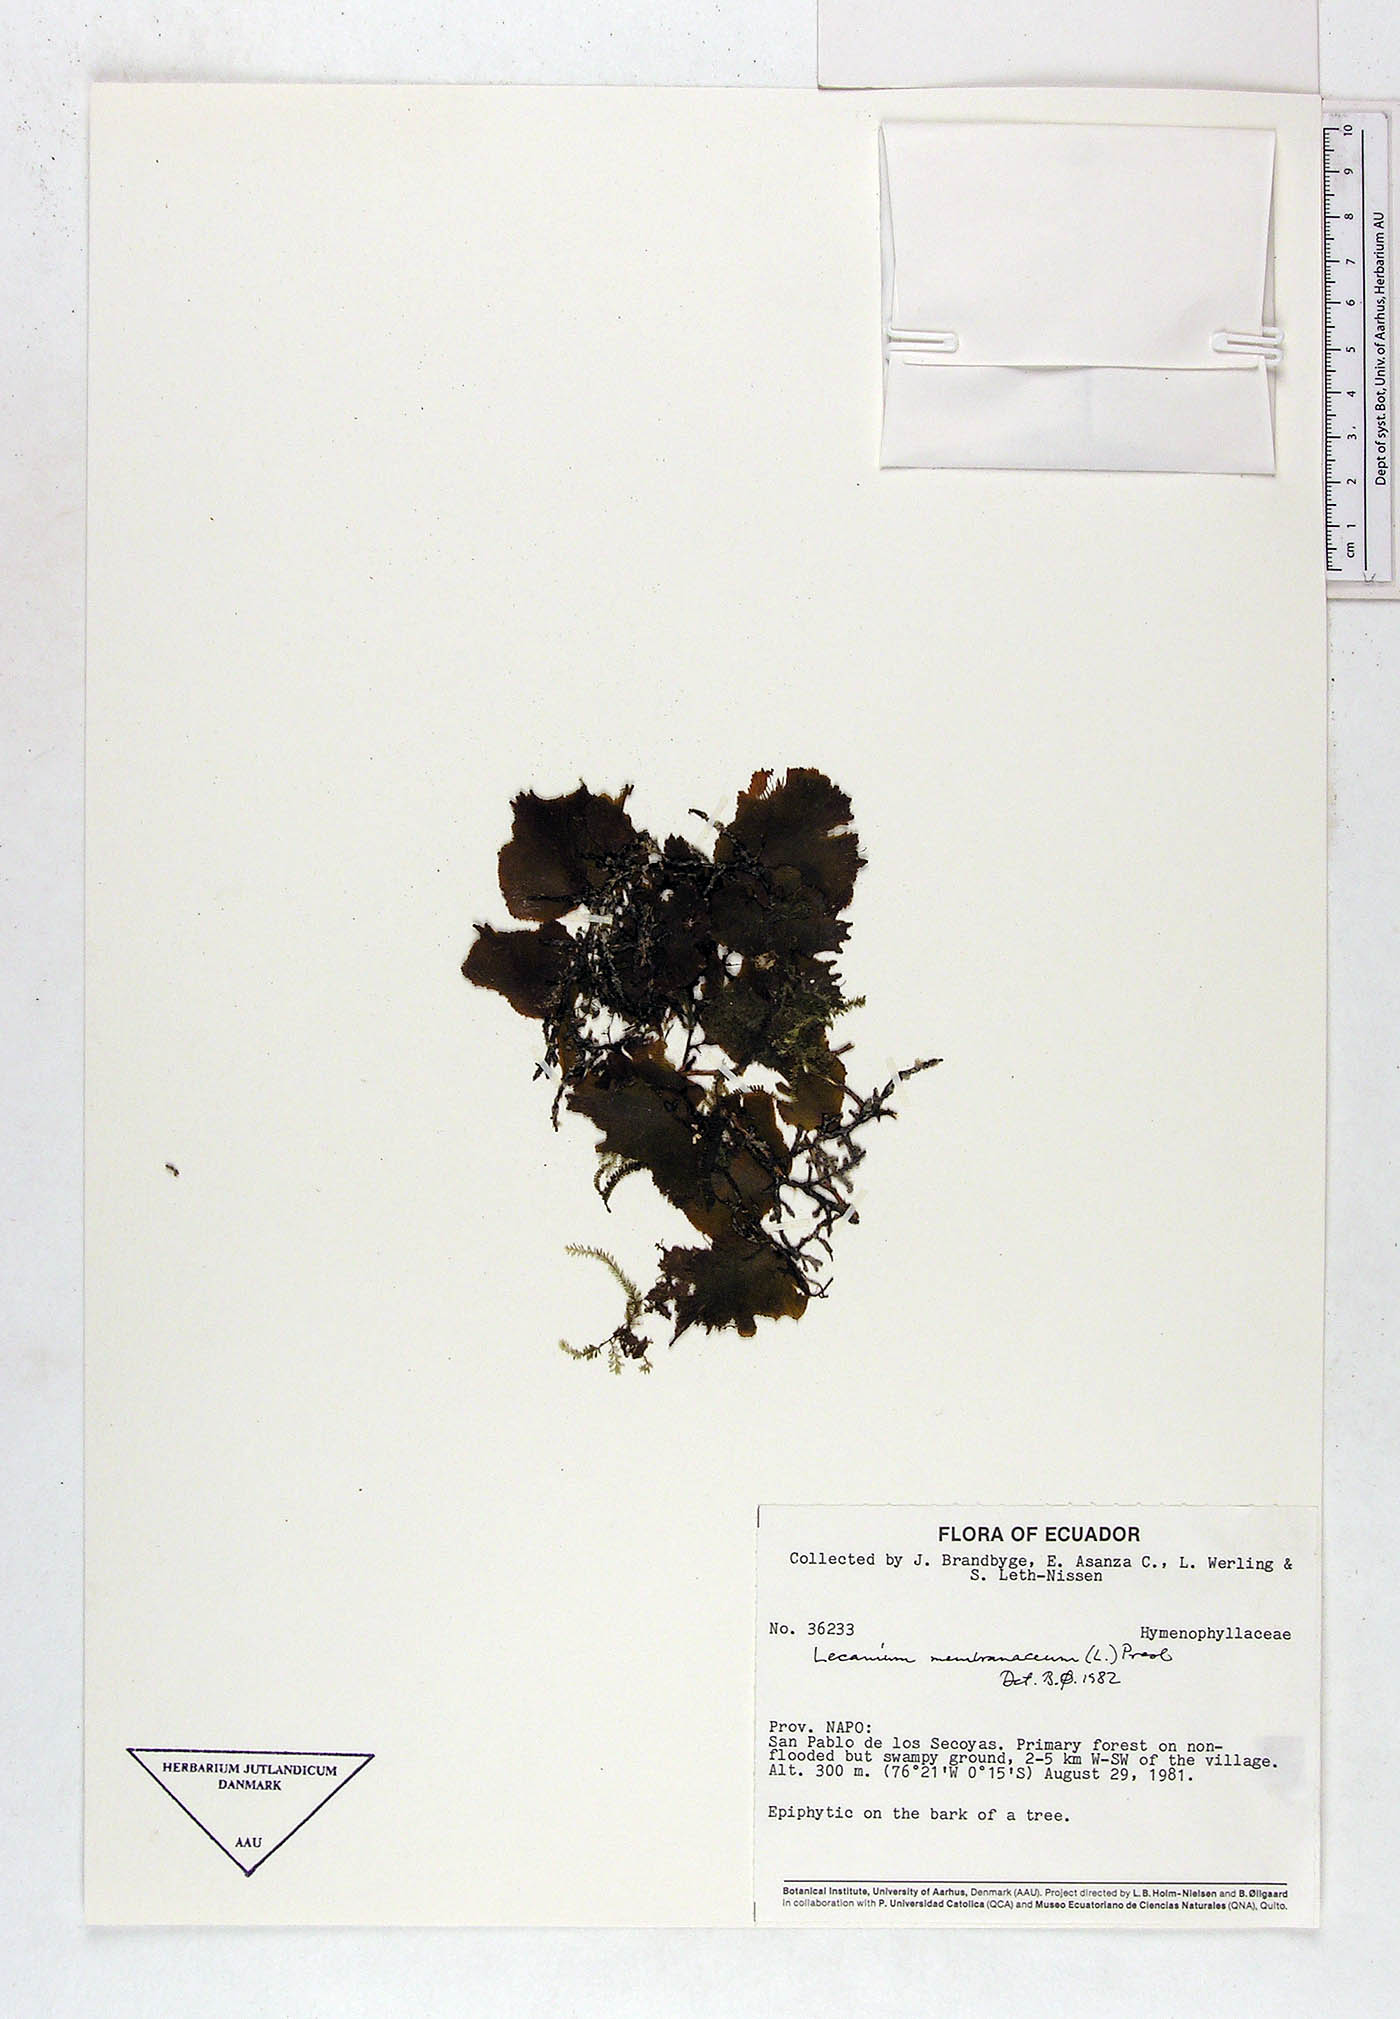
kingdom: Plantae
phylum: Tracheophyta
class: Polypodiopsida
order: Hymenophyllales
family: Hymenophyllaceae
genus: Didymoglossum
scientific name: Didymoglossum membranaceum
